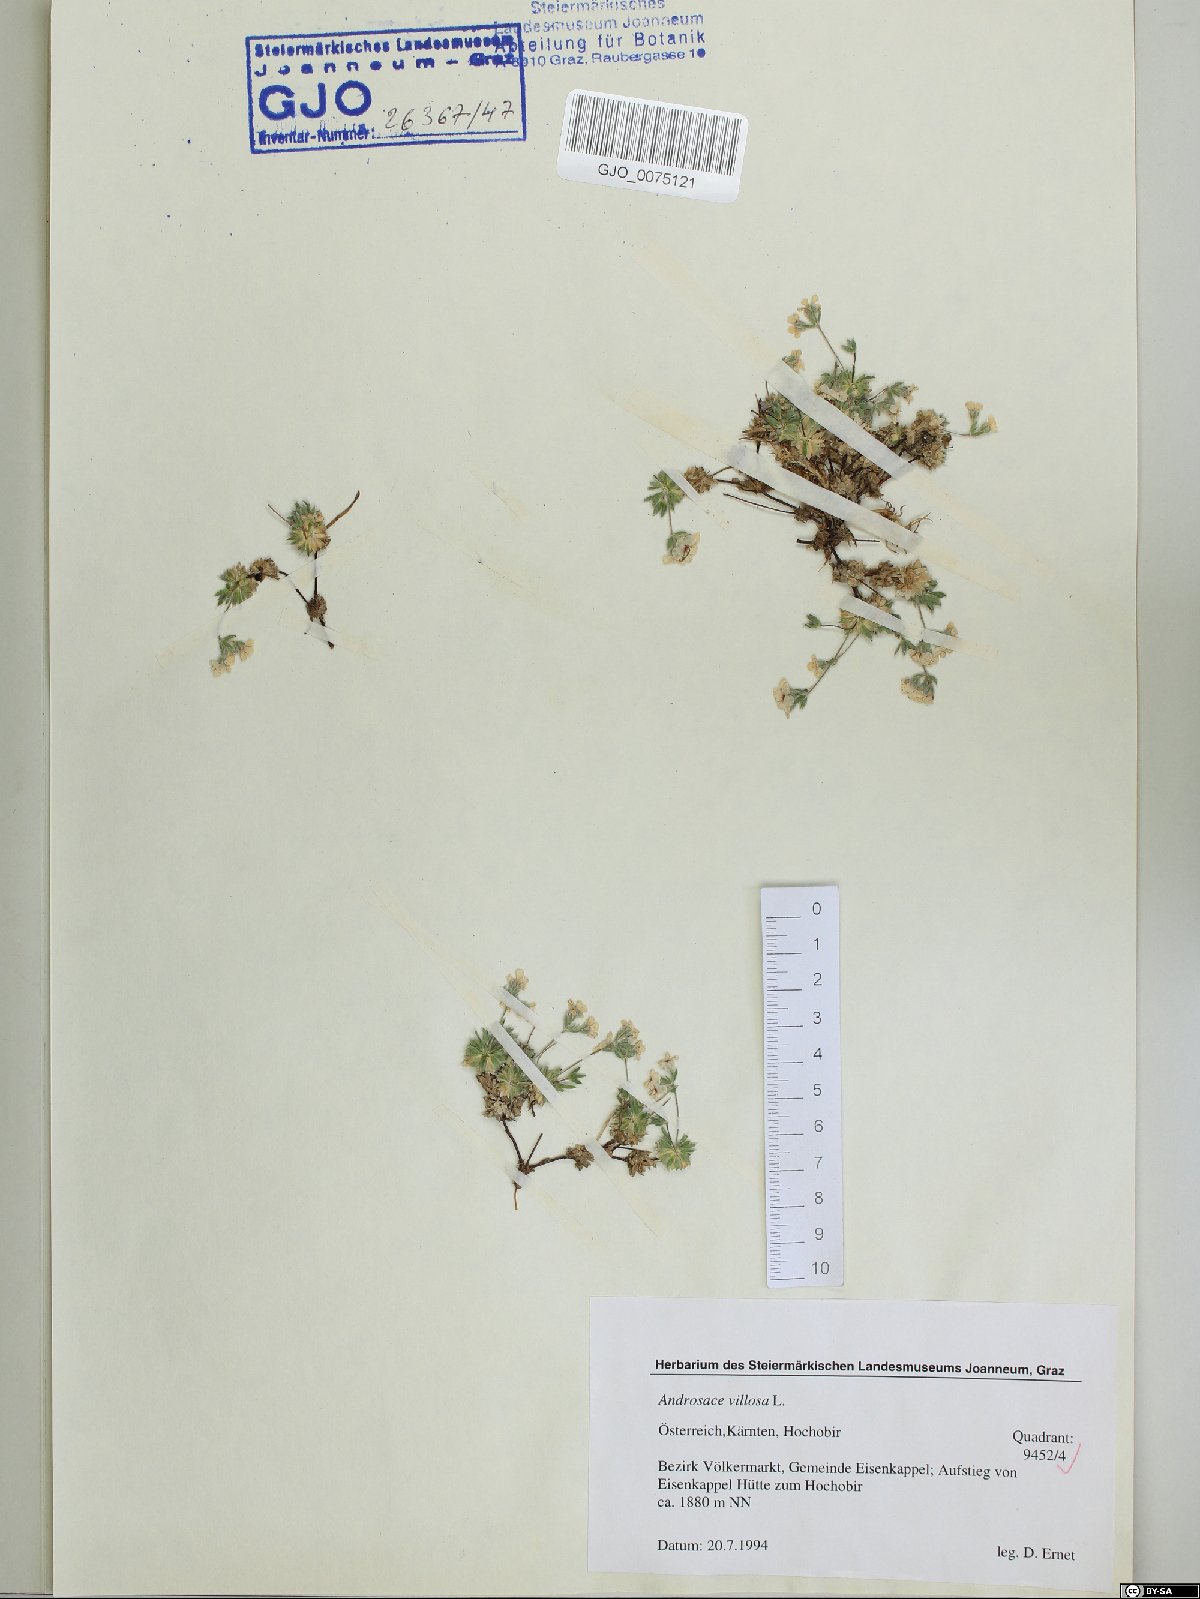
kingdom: Plantae
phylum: Tracheophyta
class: Magnoliopsida
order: Ericales
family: Primulaceae
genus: Androsace
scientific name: Androsace villosa
